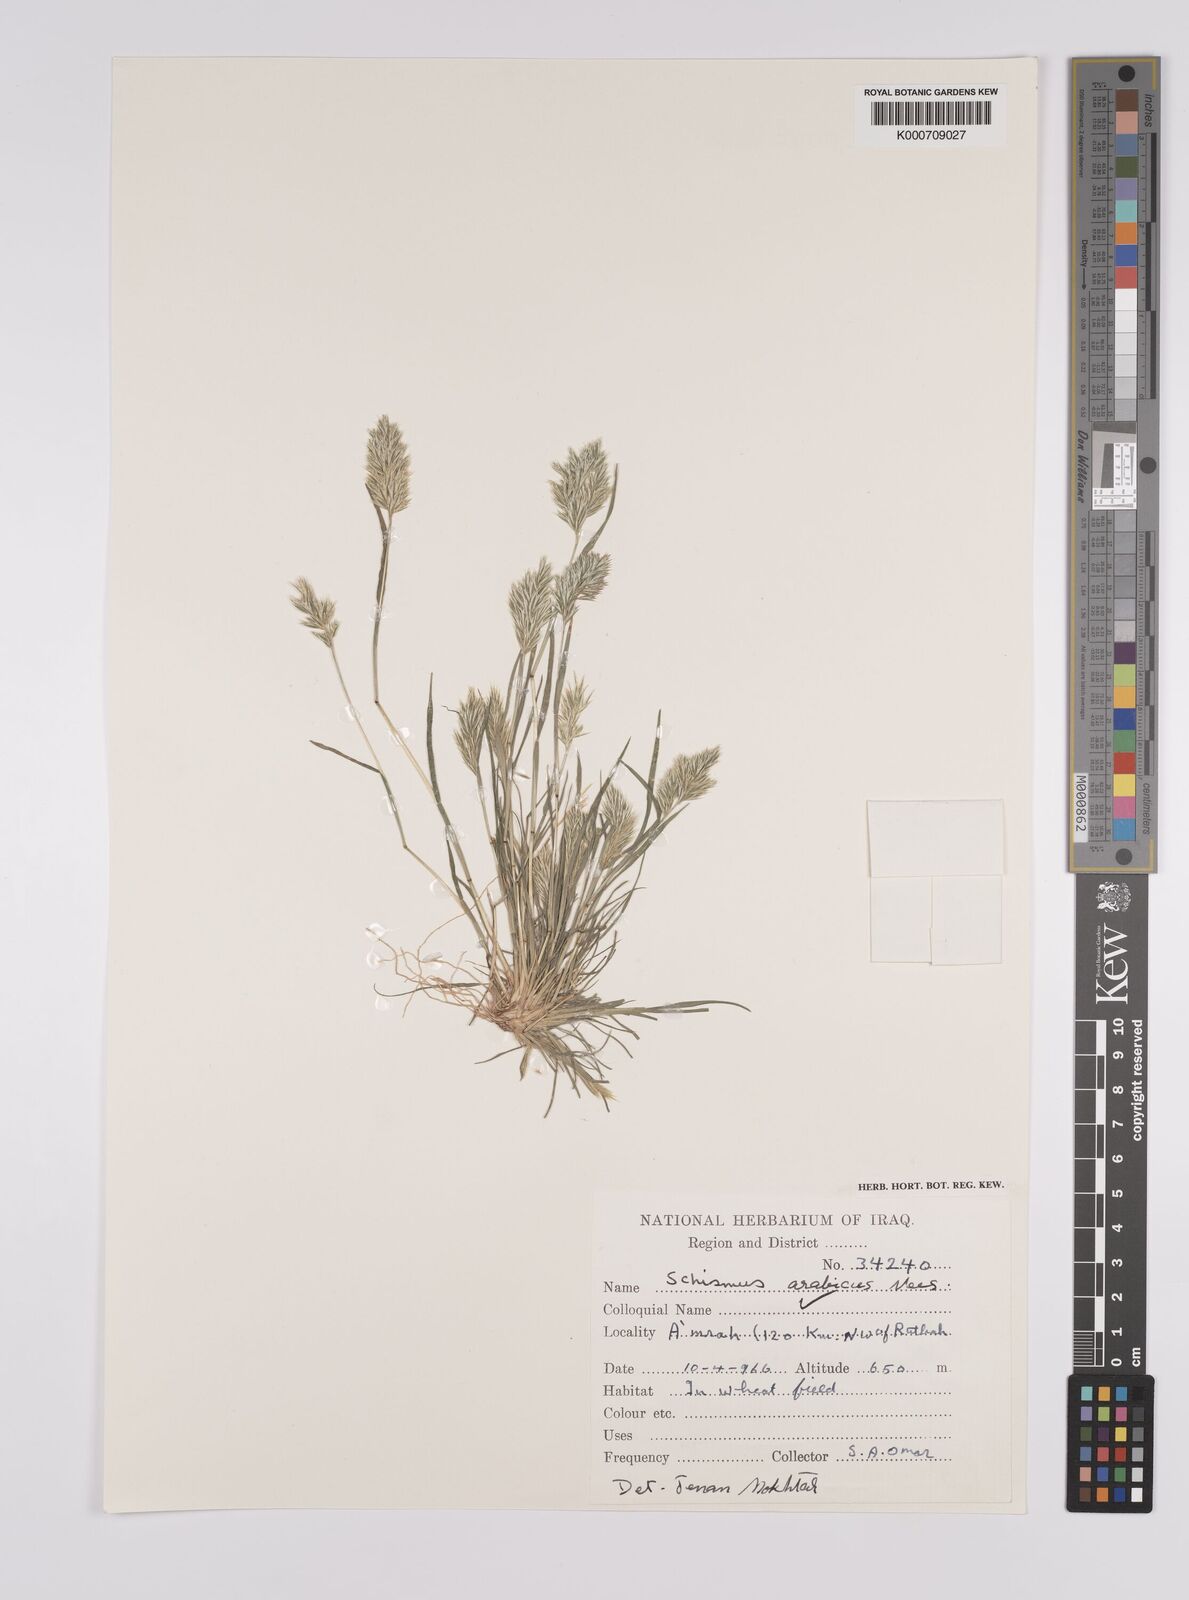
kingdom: Plantae
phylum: Tracheophyta
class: Liliopsida
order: Poales
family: Poaceae
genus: Schismus
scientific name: Schismus arabicus
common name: Arabian schismus
